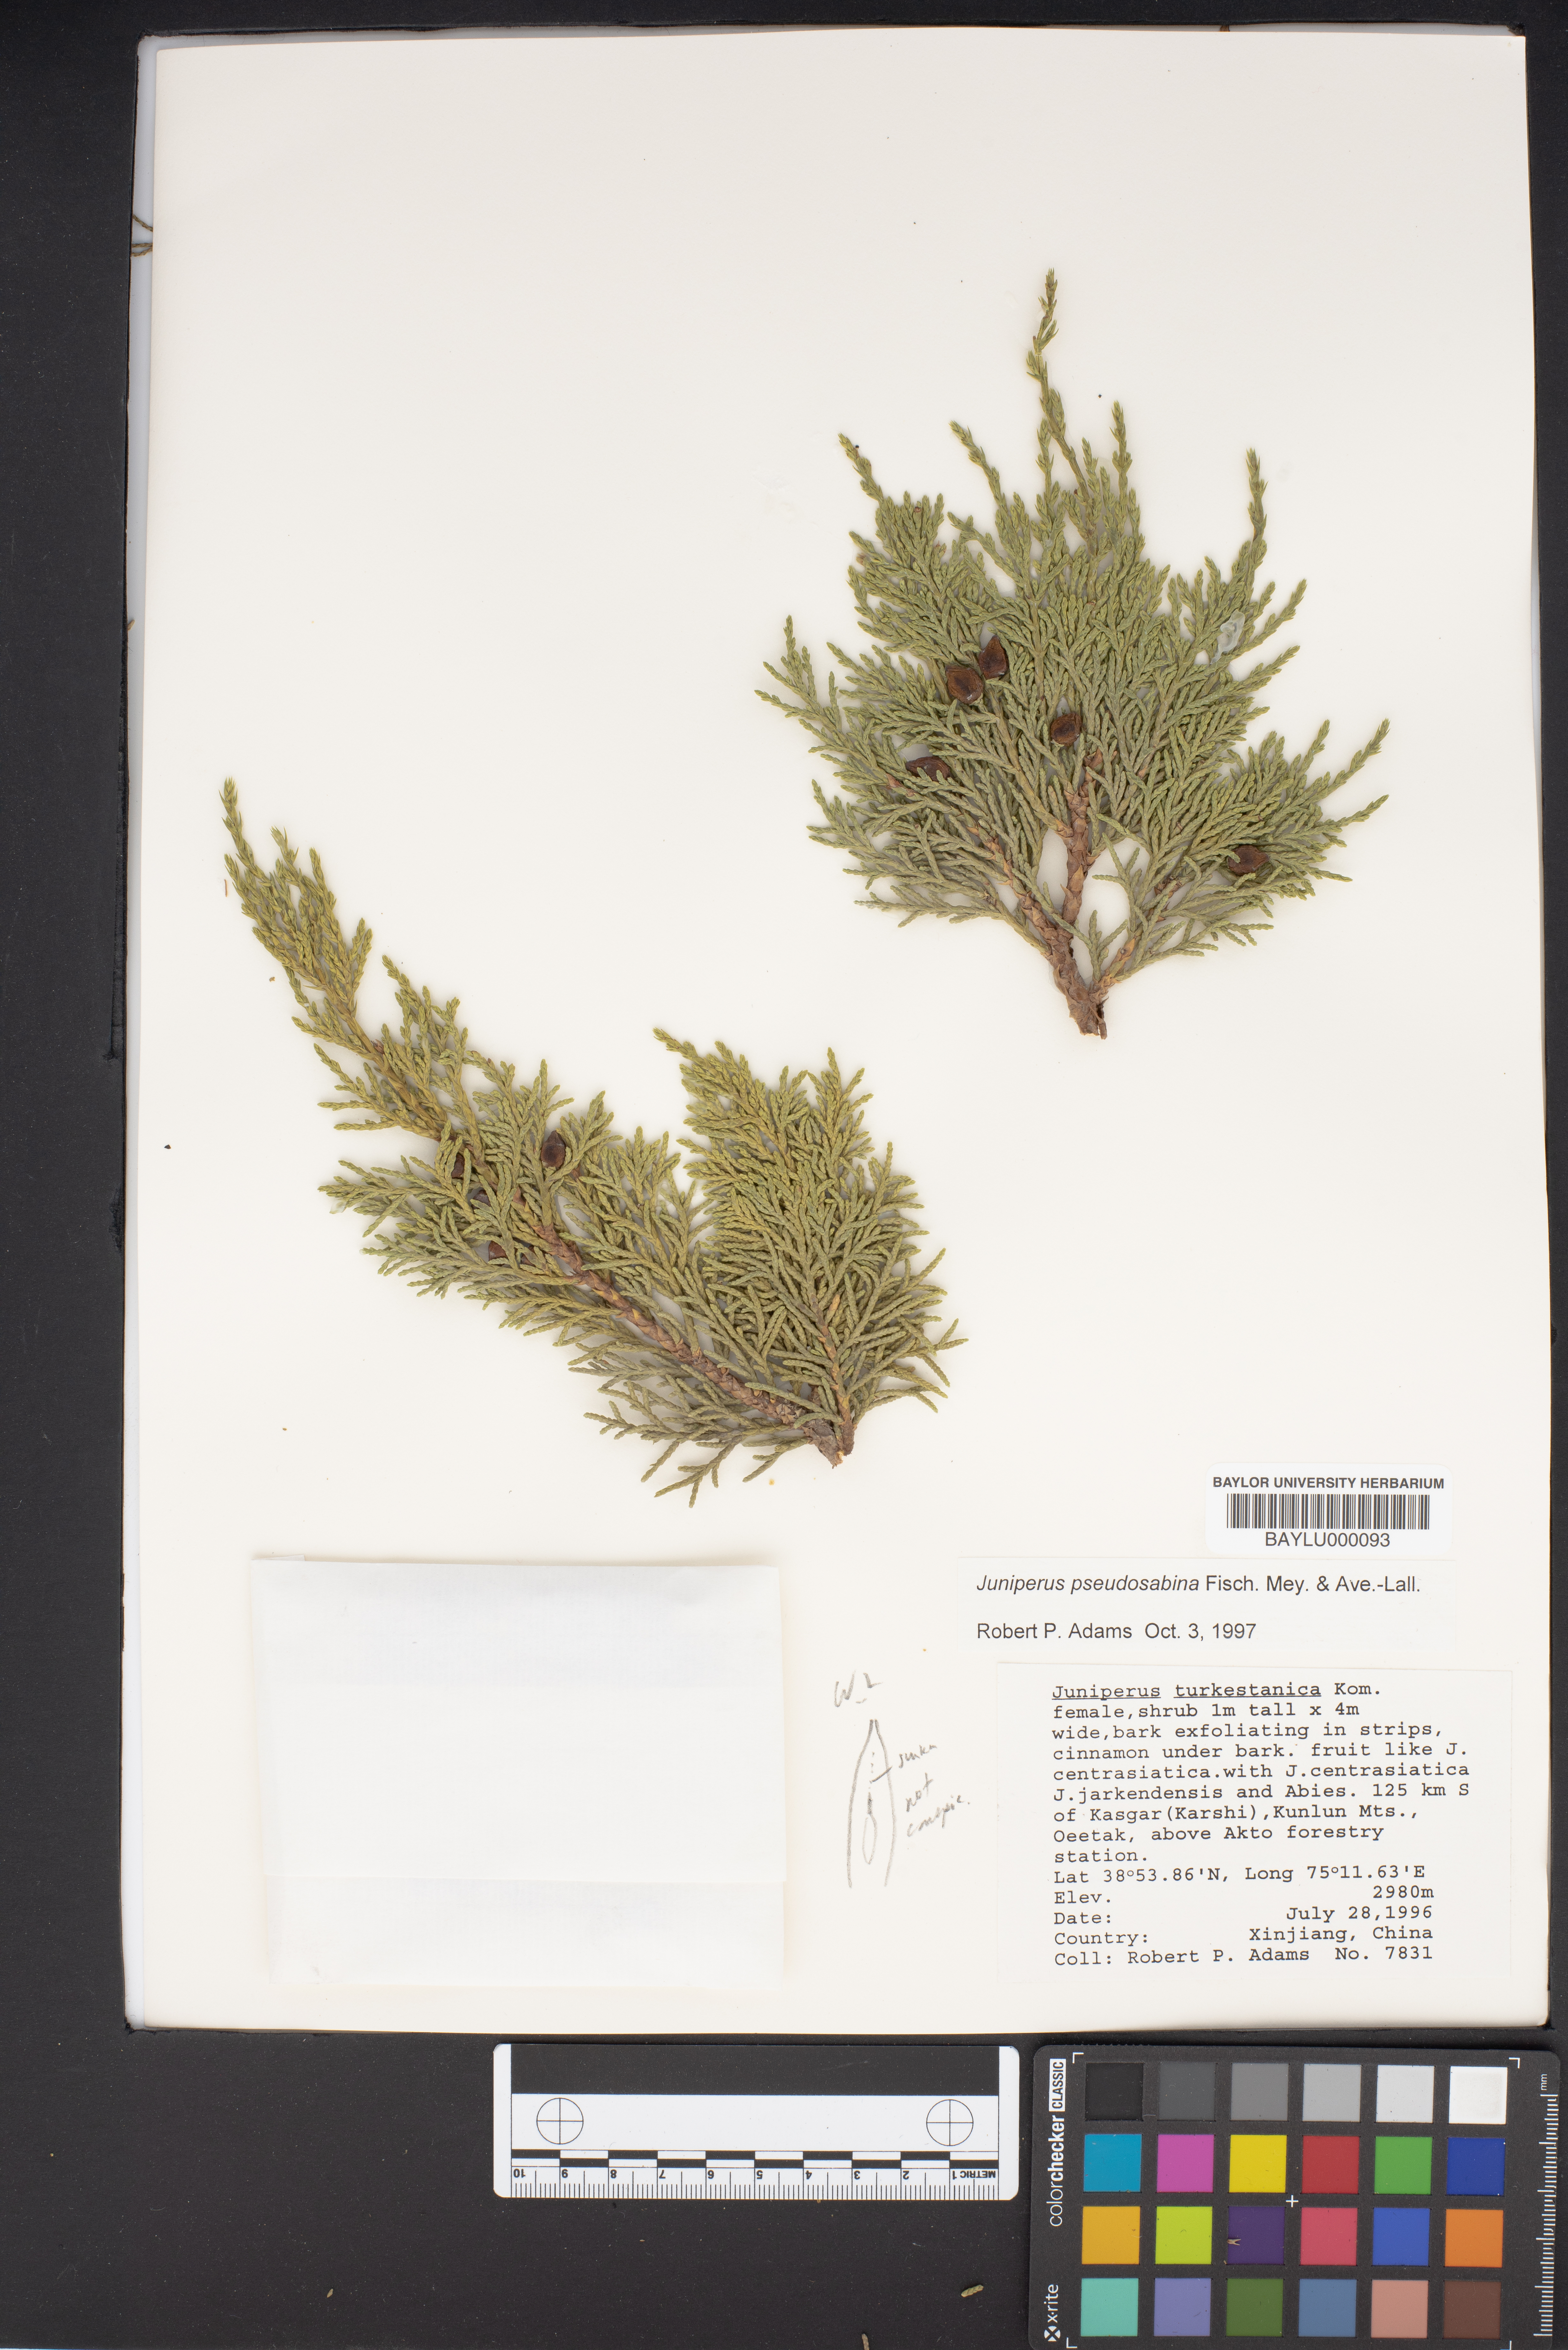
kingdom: Plantae
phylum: Tracheophyta
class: Pinopsida
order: Pinales
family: Cupressaceae
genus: Juniperus
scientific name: Juniperus pseudosabina
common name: Turkestan juniper
